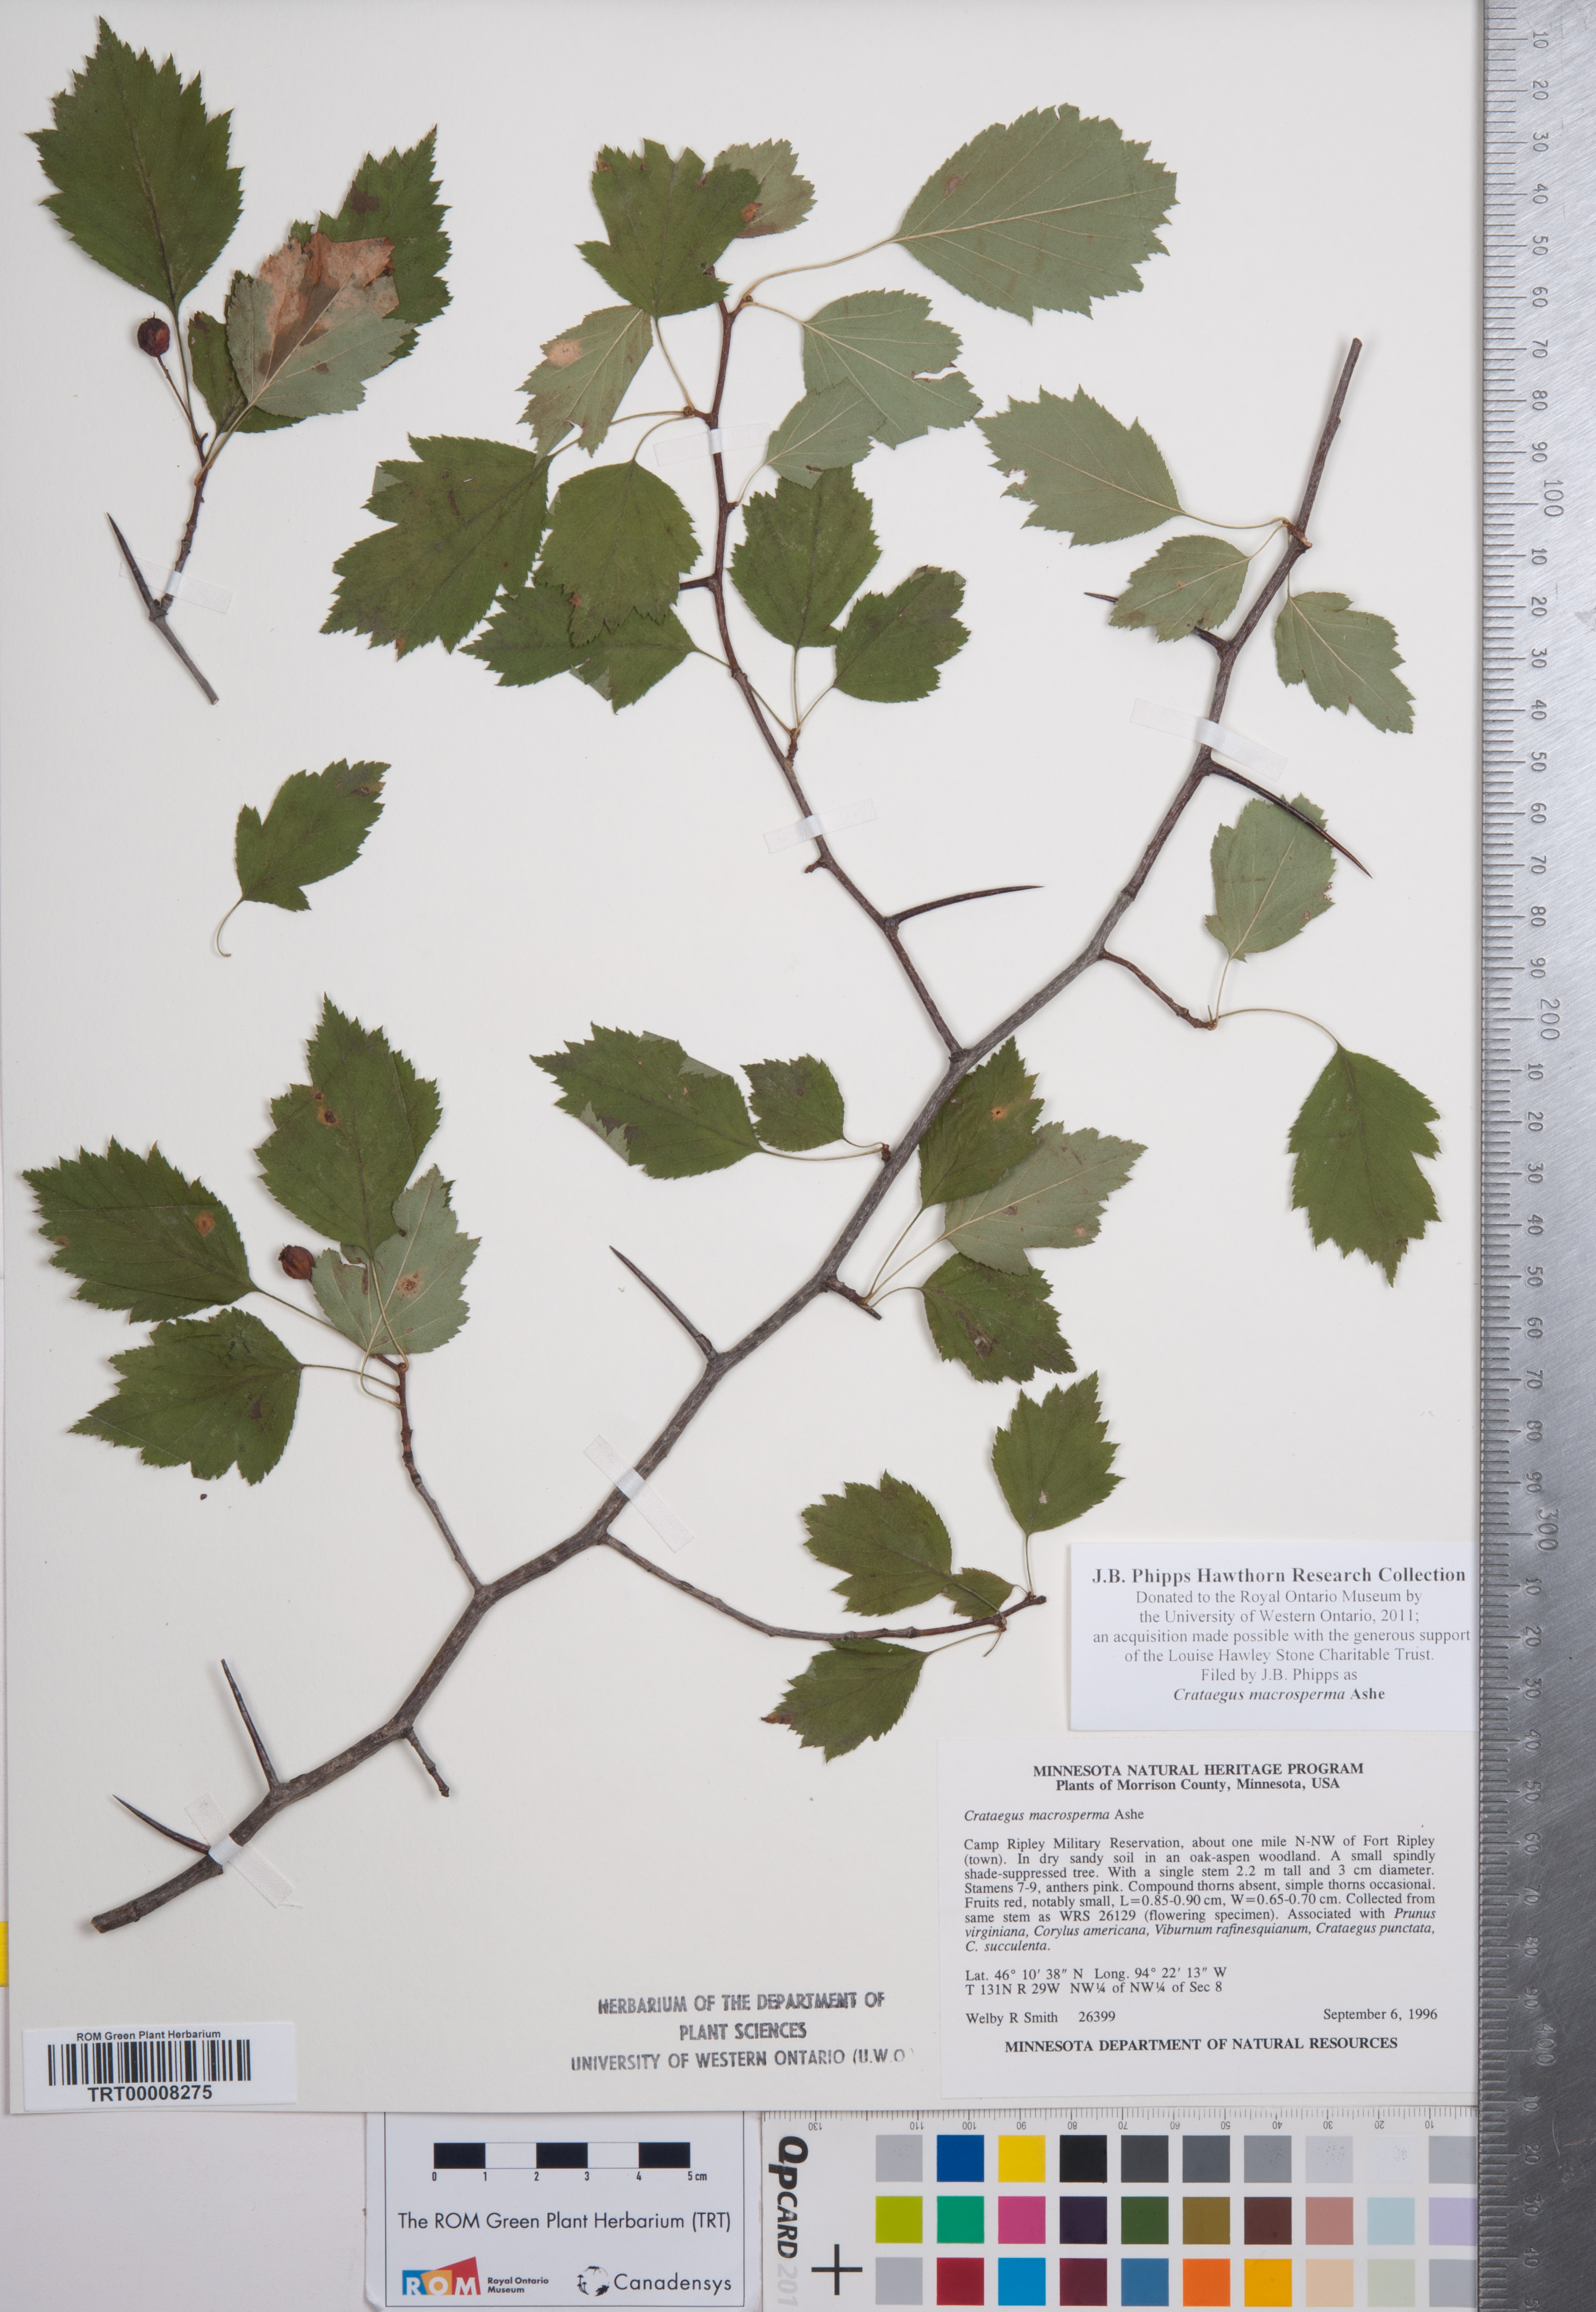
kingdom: Plantae
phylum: Tracheophyta
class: Magnoliopsida
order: Rosales
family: Rosaceae
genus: Crataegus
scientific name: Crataegus macrosperma
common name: Variable hawthorn
